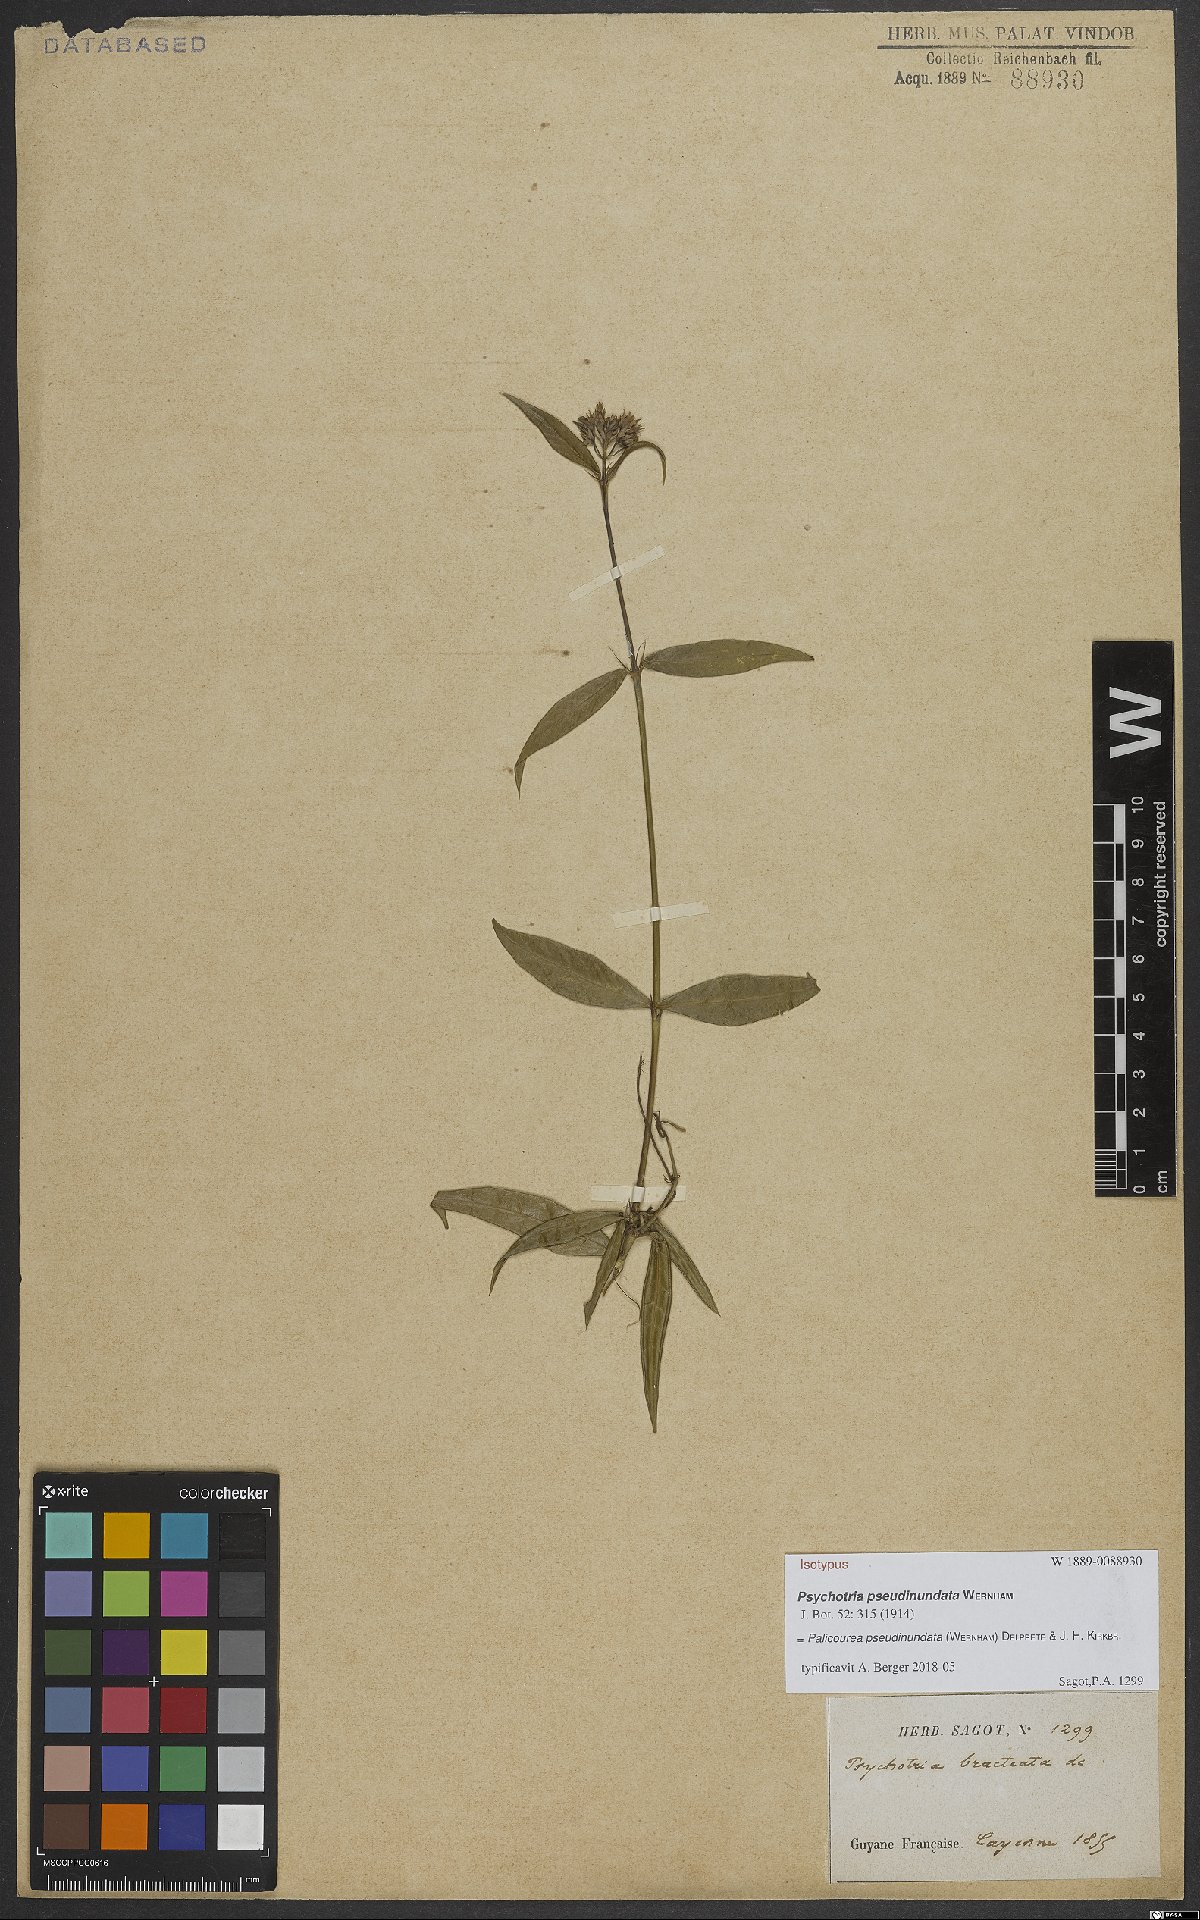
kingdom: Plantae
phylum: Tracheophyta
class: Magnoliopsida
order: Gentianales
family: Rubiaceae
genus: Palicourea
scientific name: Palicourea pseudinundata
